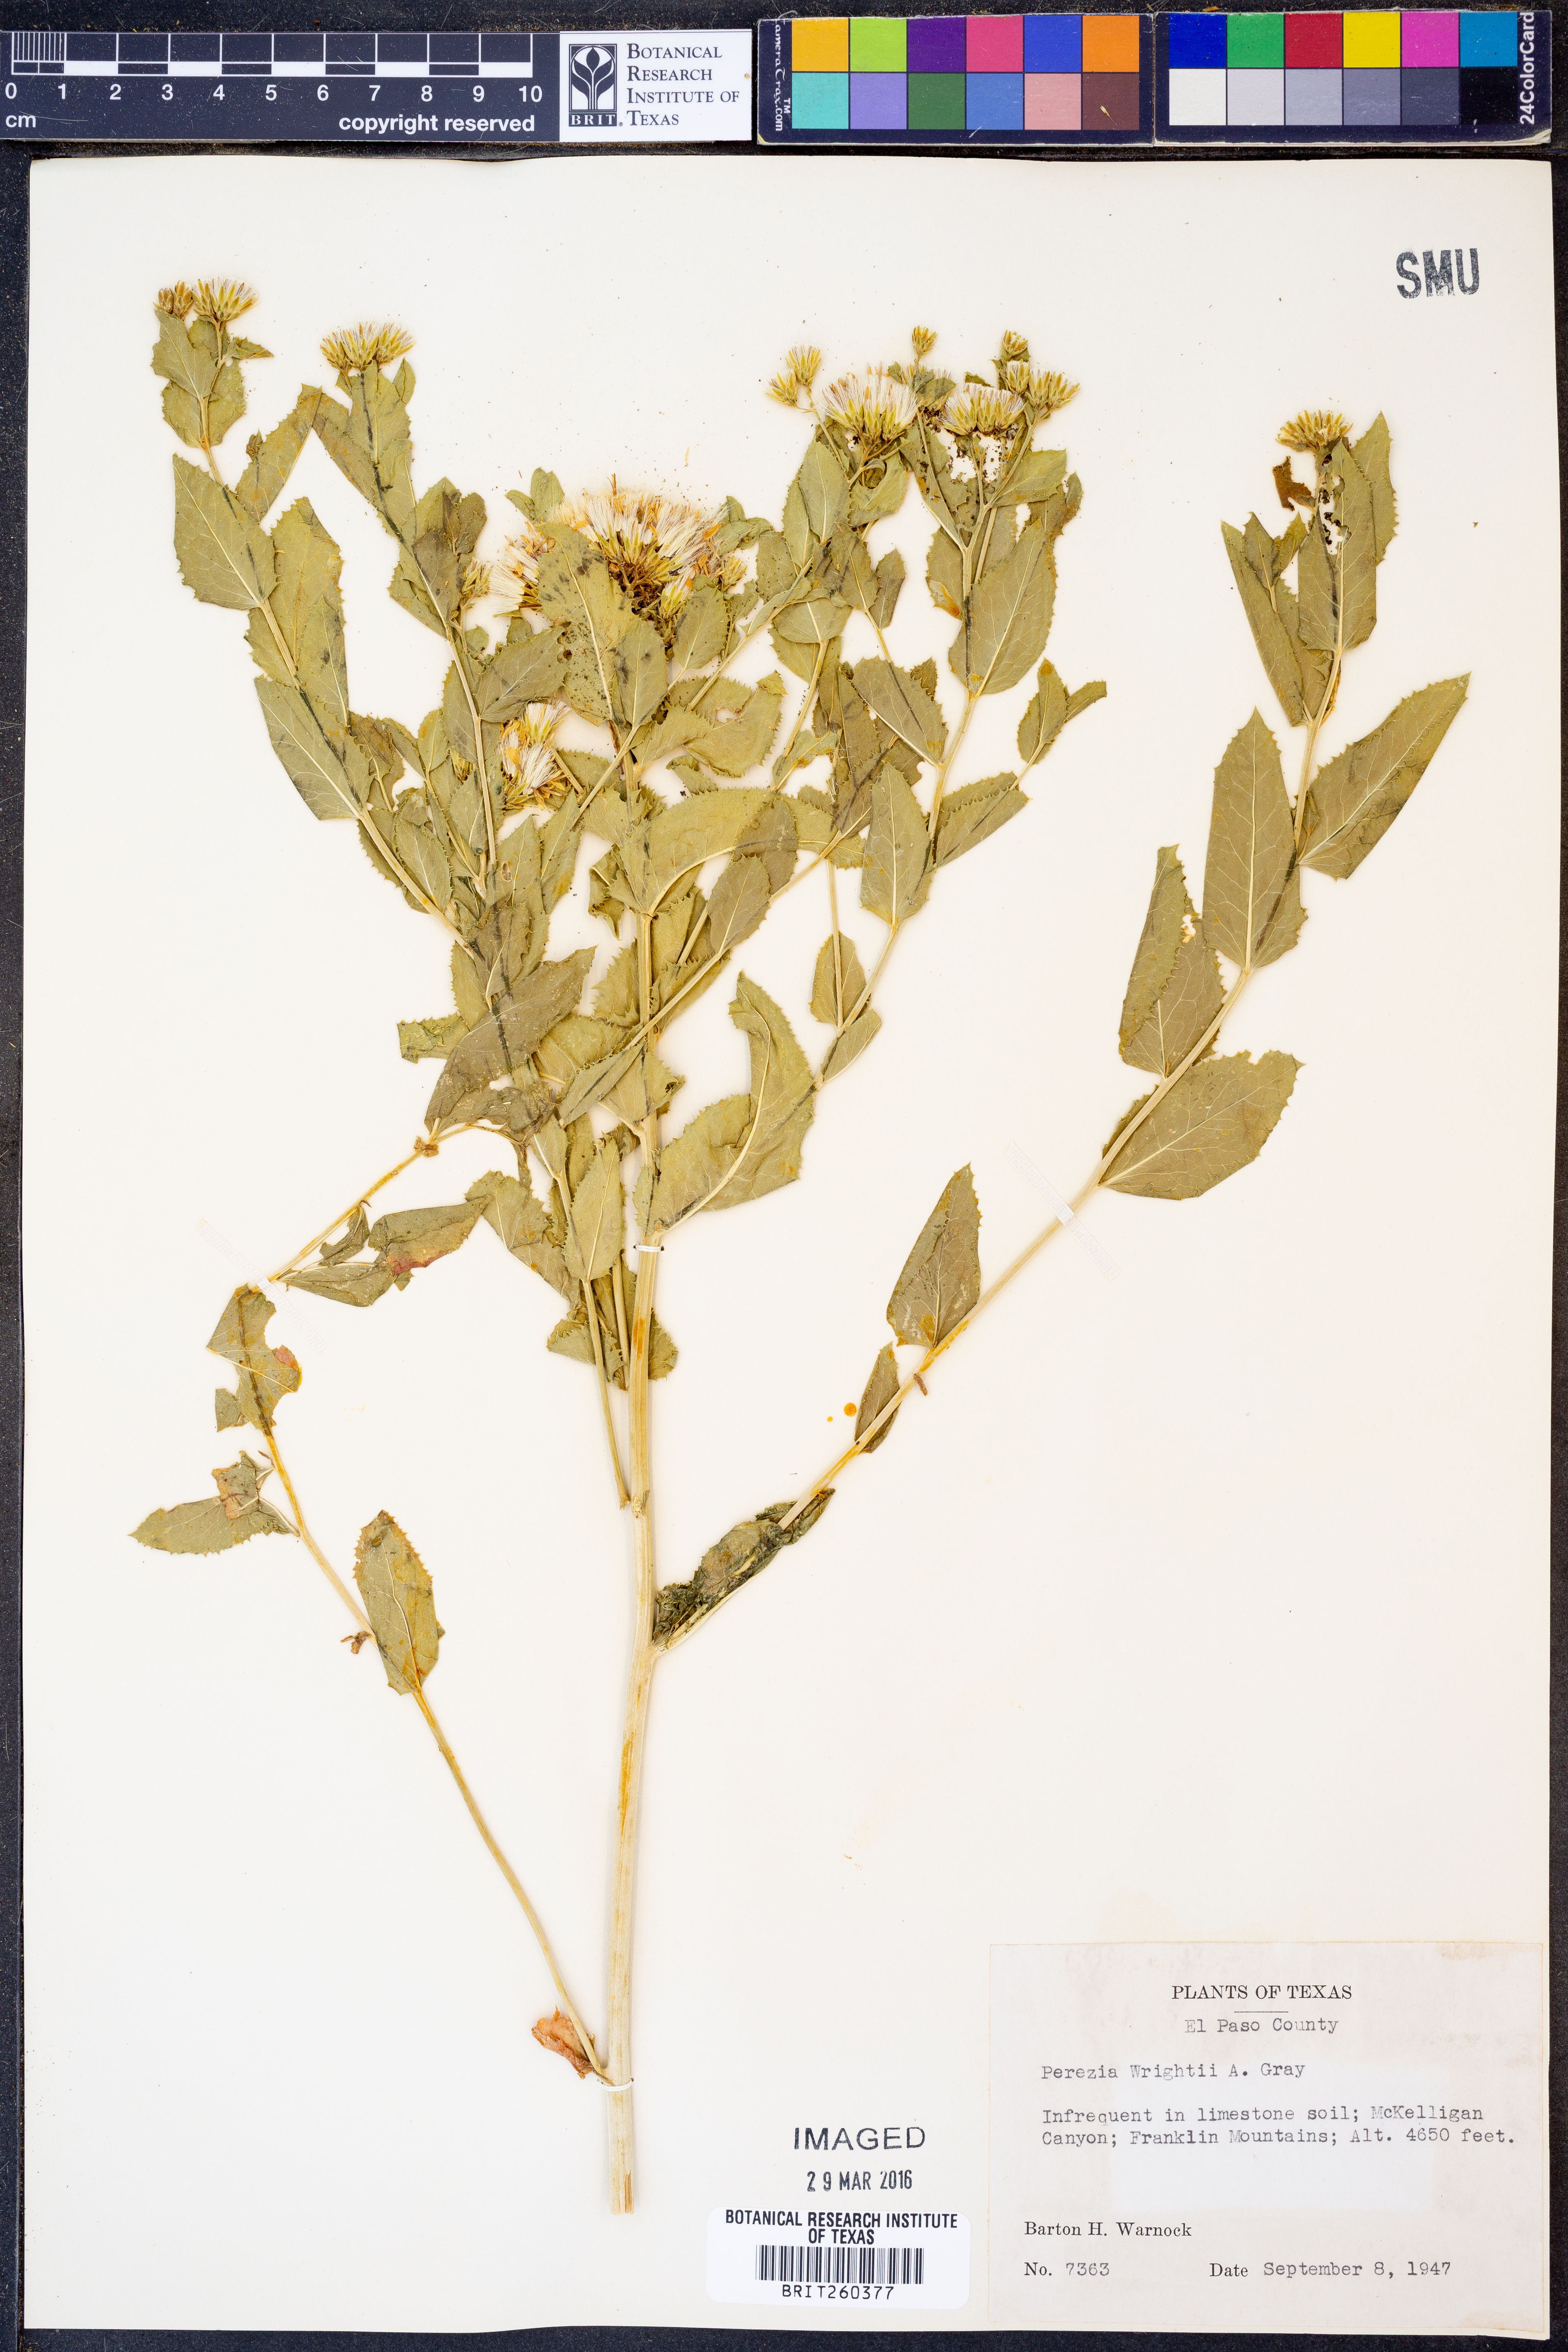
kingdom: Plantae
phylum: Tracheophyta
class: Magnoliopsida
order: Asterales
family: Asteraceae
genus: Acourtia
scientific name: Acourtia wrightii
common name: Brownfoot
